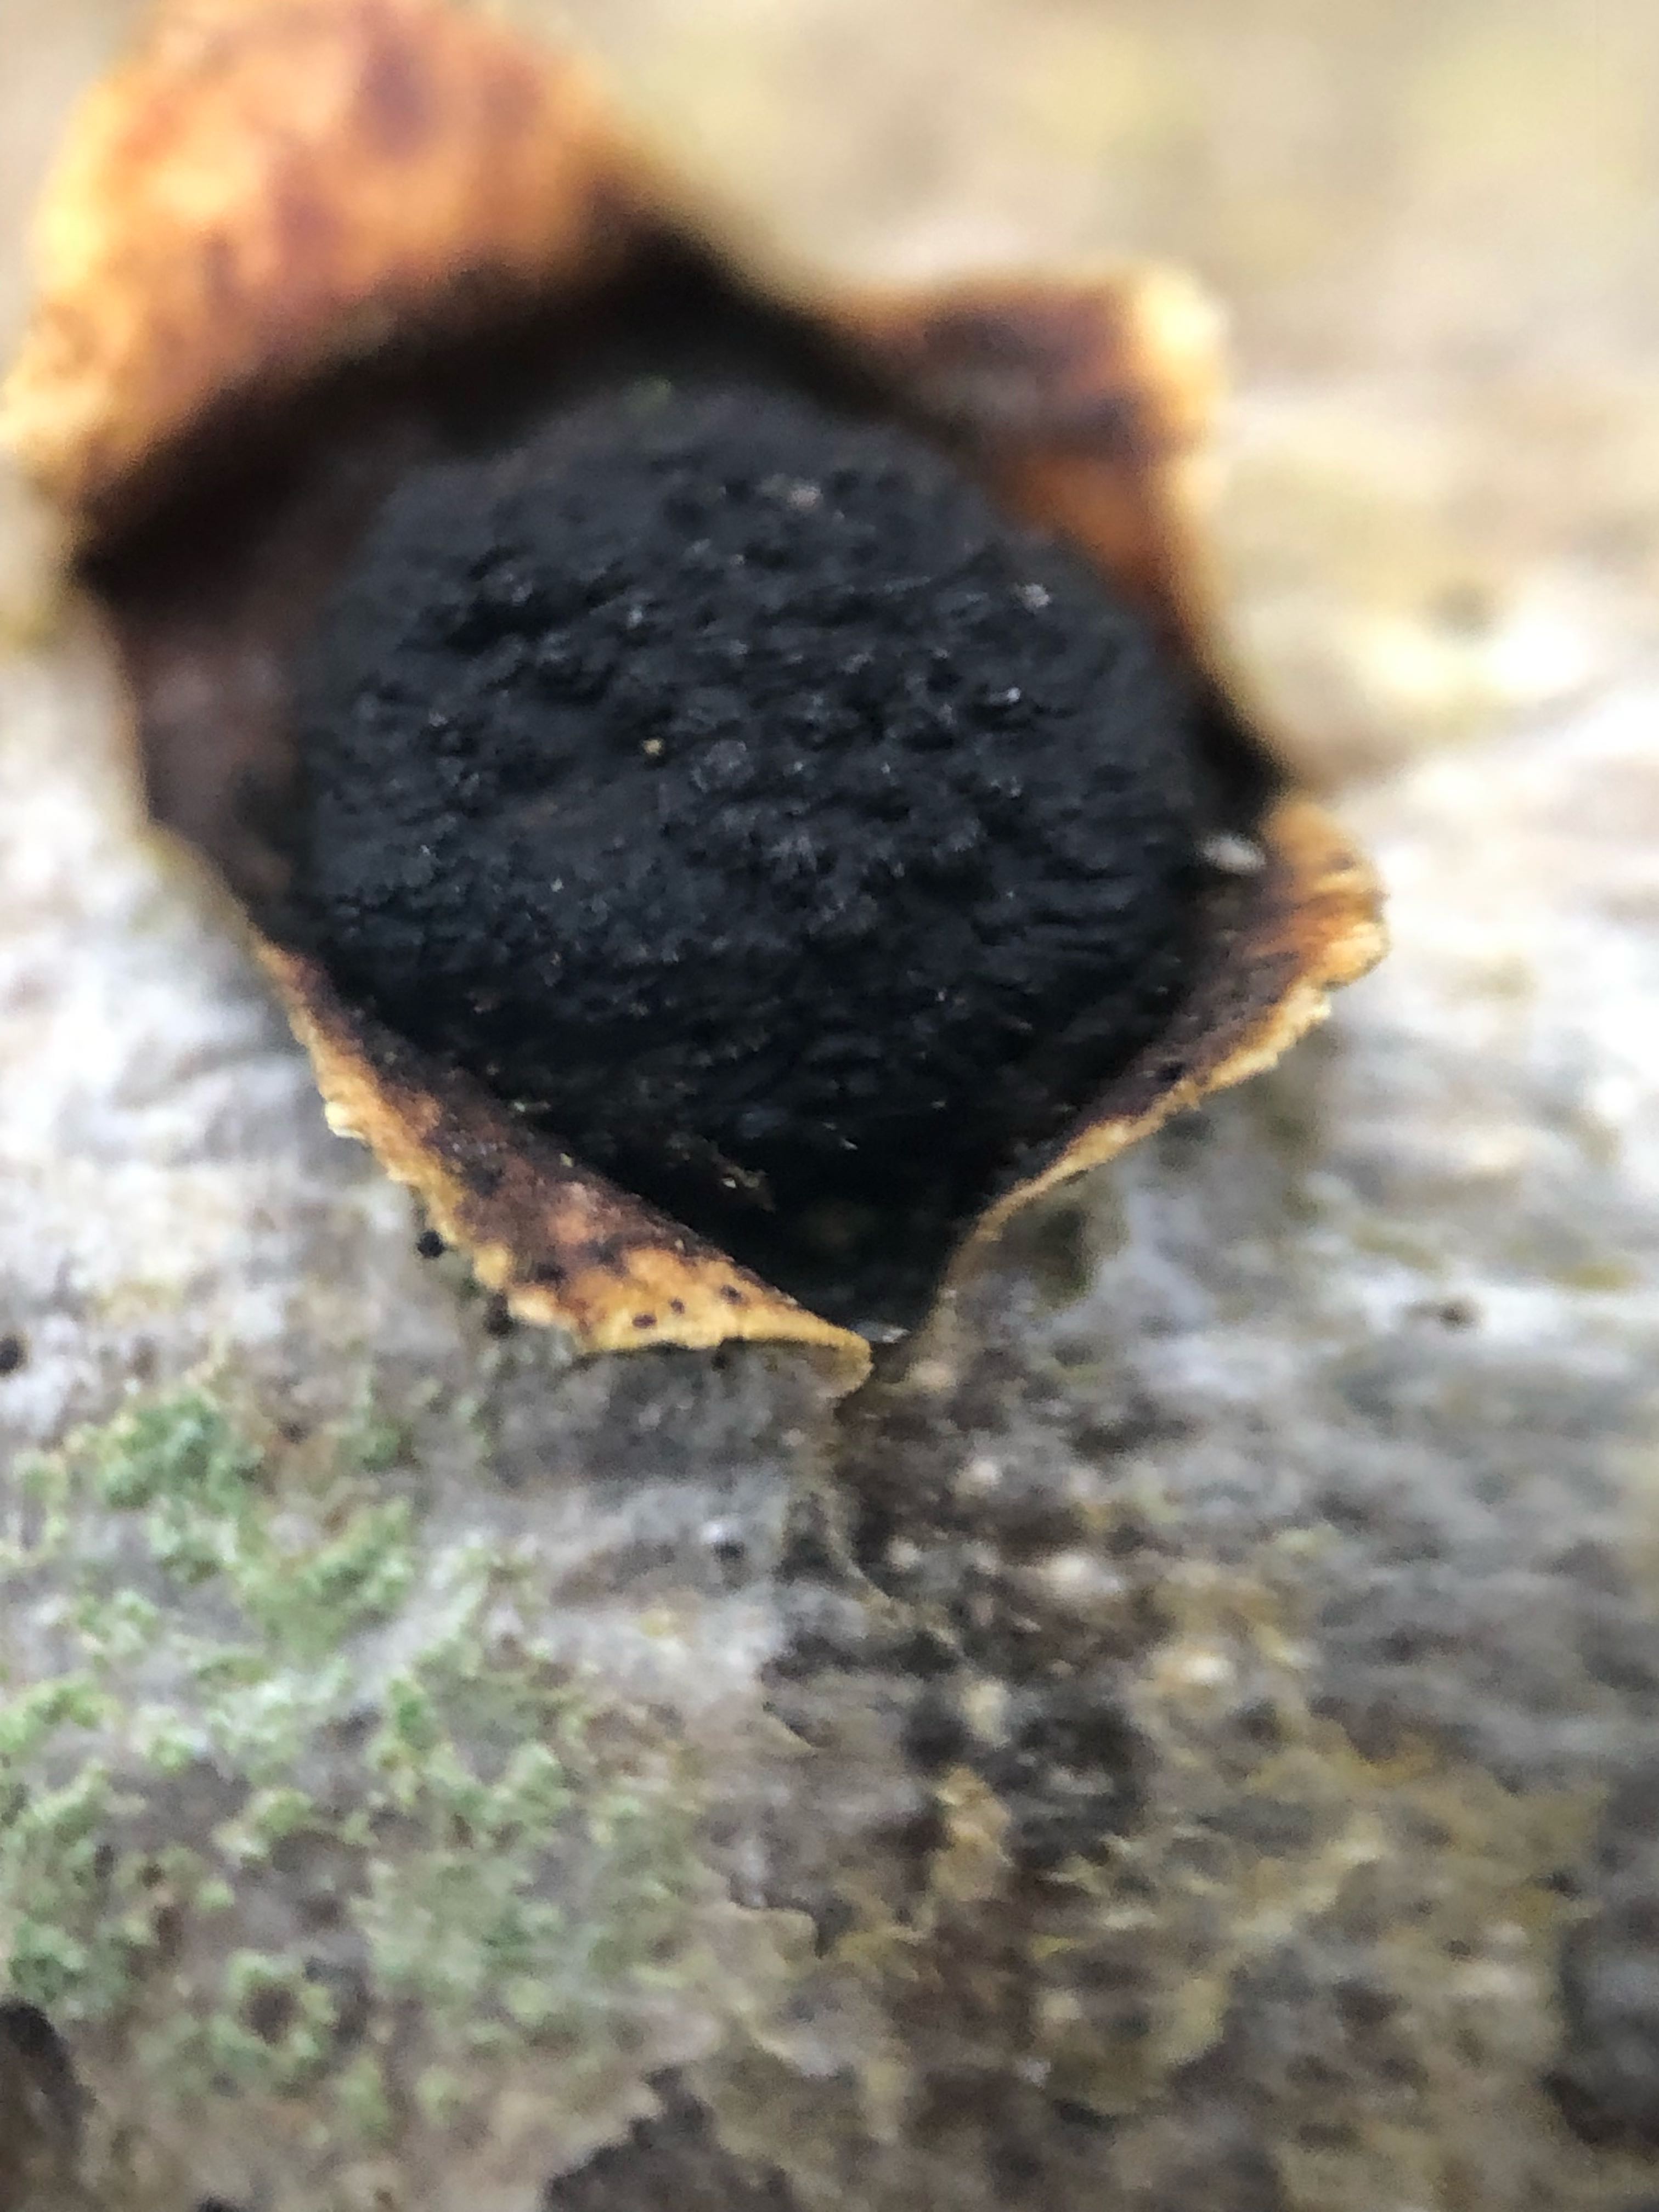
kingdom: Fungi
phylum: Ascomycota
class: Sordariomycetes
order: Xylariales
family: Diatrypaceae
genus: Eutypella
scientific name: Eutypella sorbi
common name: rønne-kulskorpe
